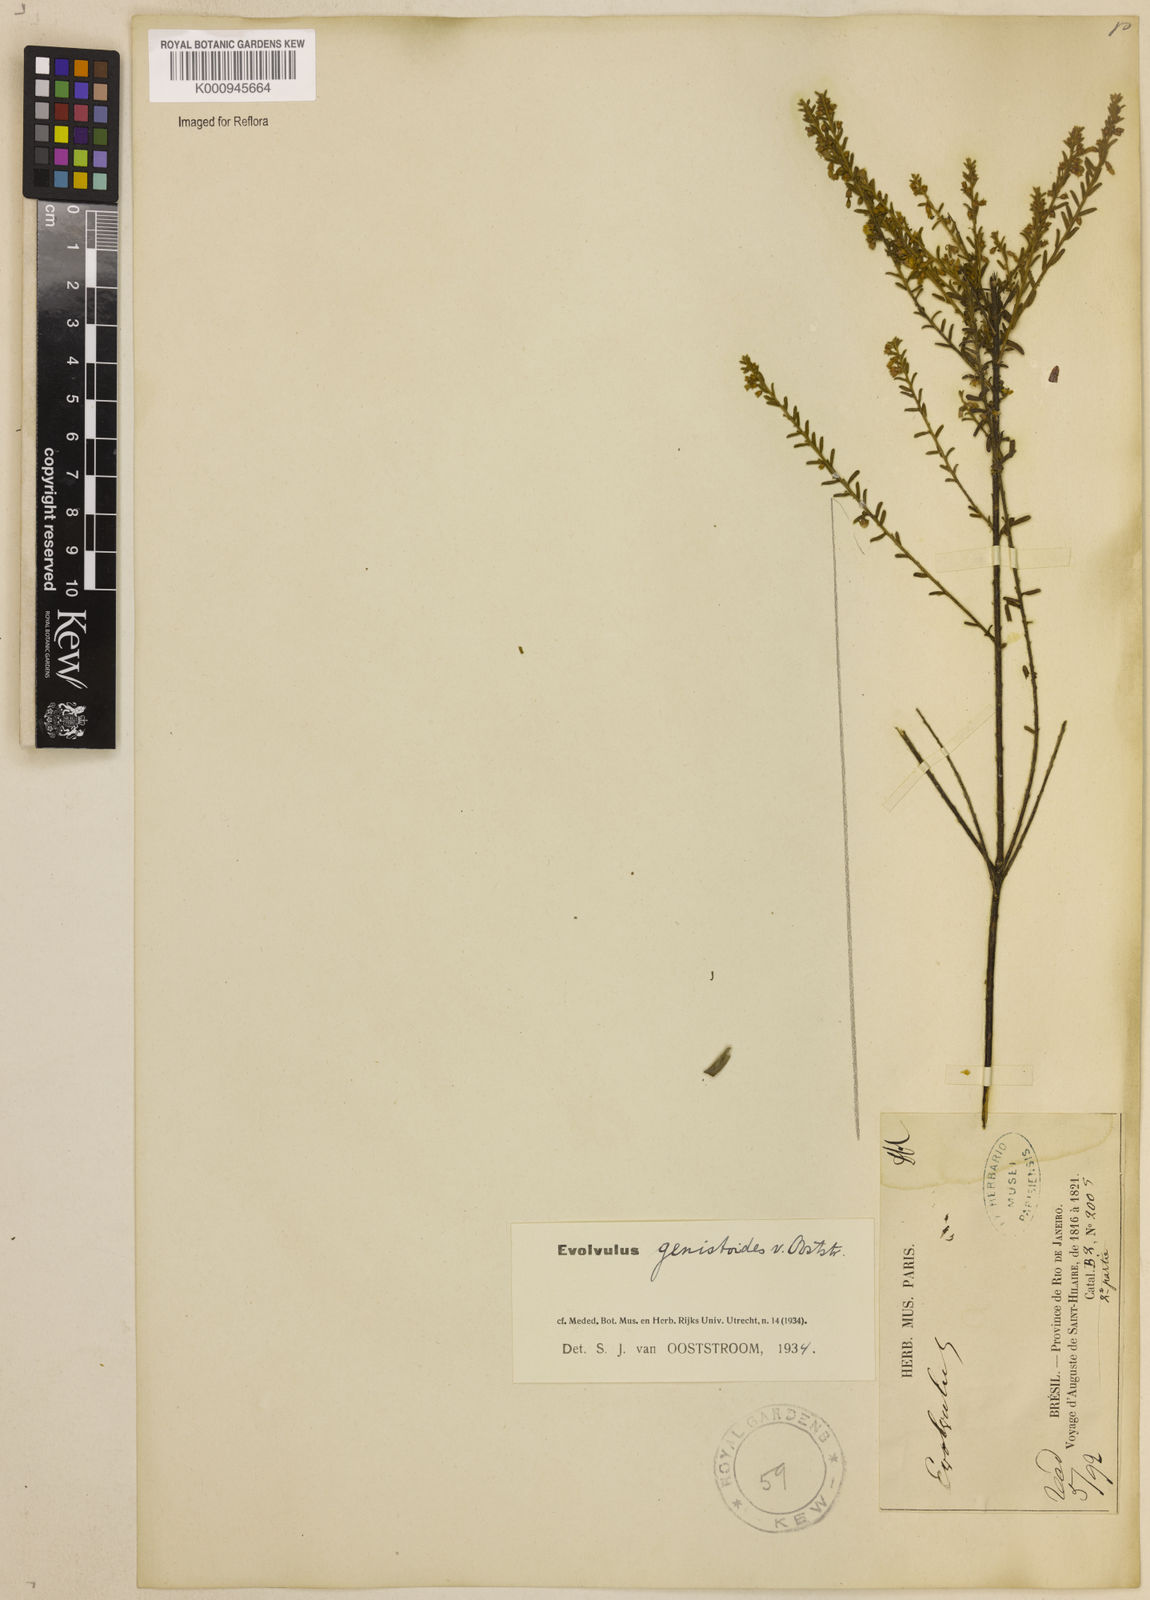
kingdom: Plantae
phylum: Tracheophyta
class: Magnoliopsida
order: Solanales
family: Convolvulaceae
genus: Evolvulus
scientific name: Evolvulus genistoides
